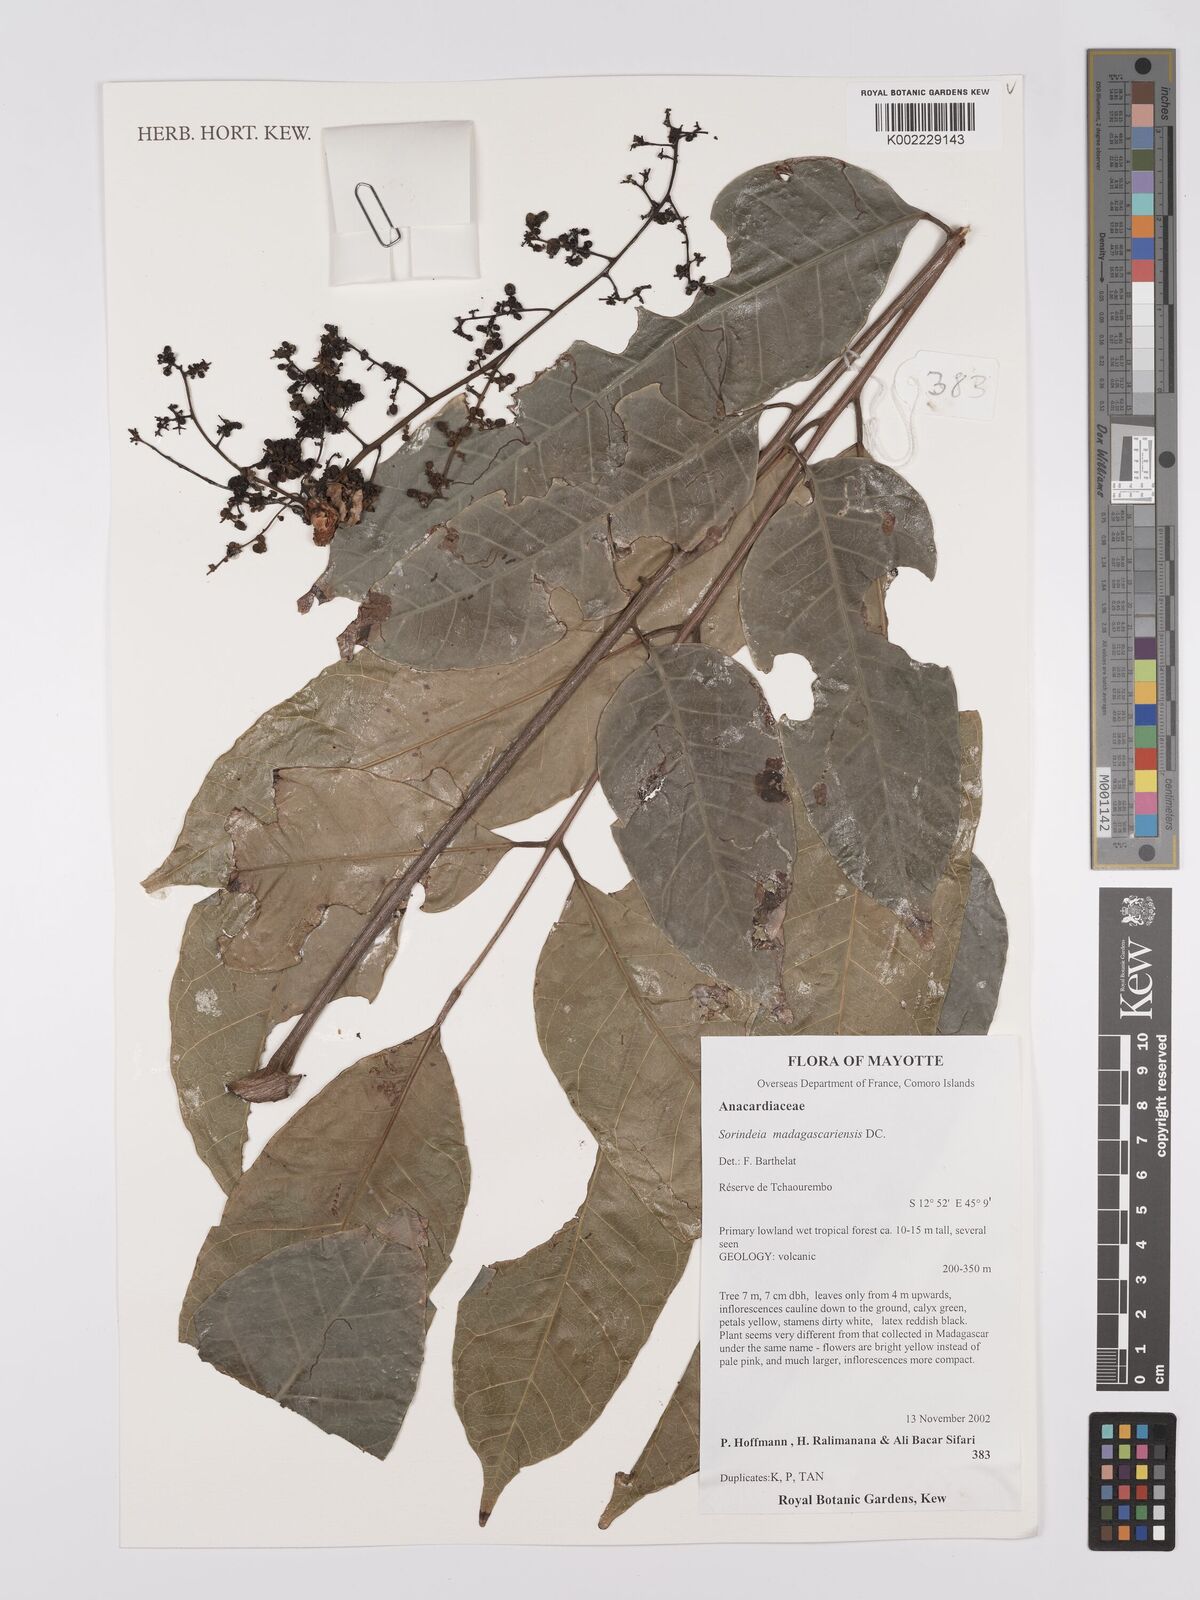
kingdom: Plantae
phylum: Tracheophyta
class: Magnoliopsida
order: Sapindales
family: Anacardiaceae
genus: Sorindeia
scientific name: Sorindeia madagascariensis
